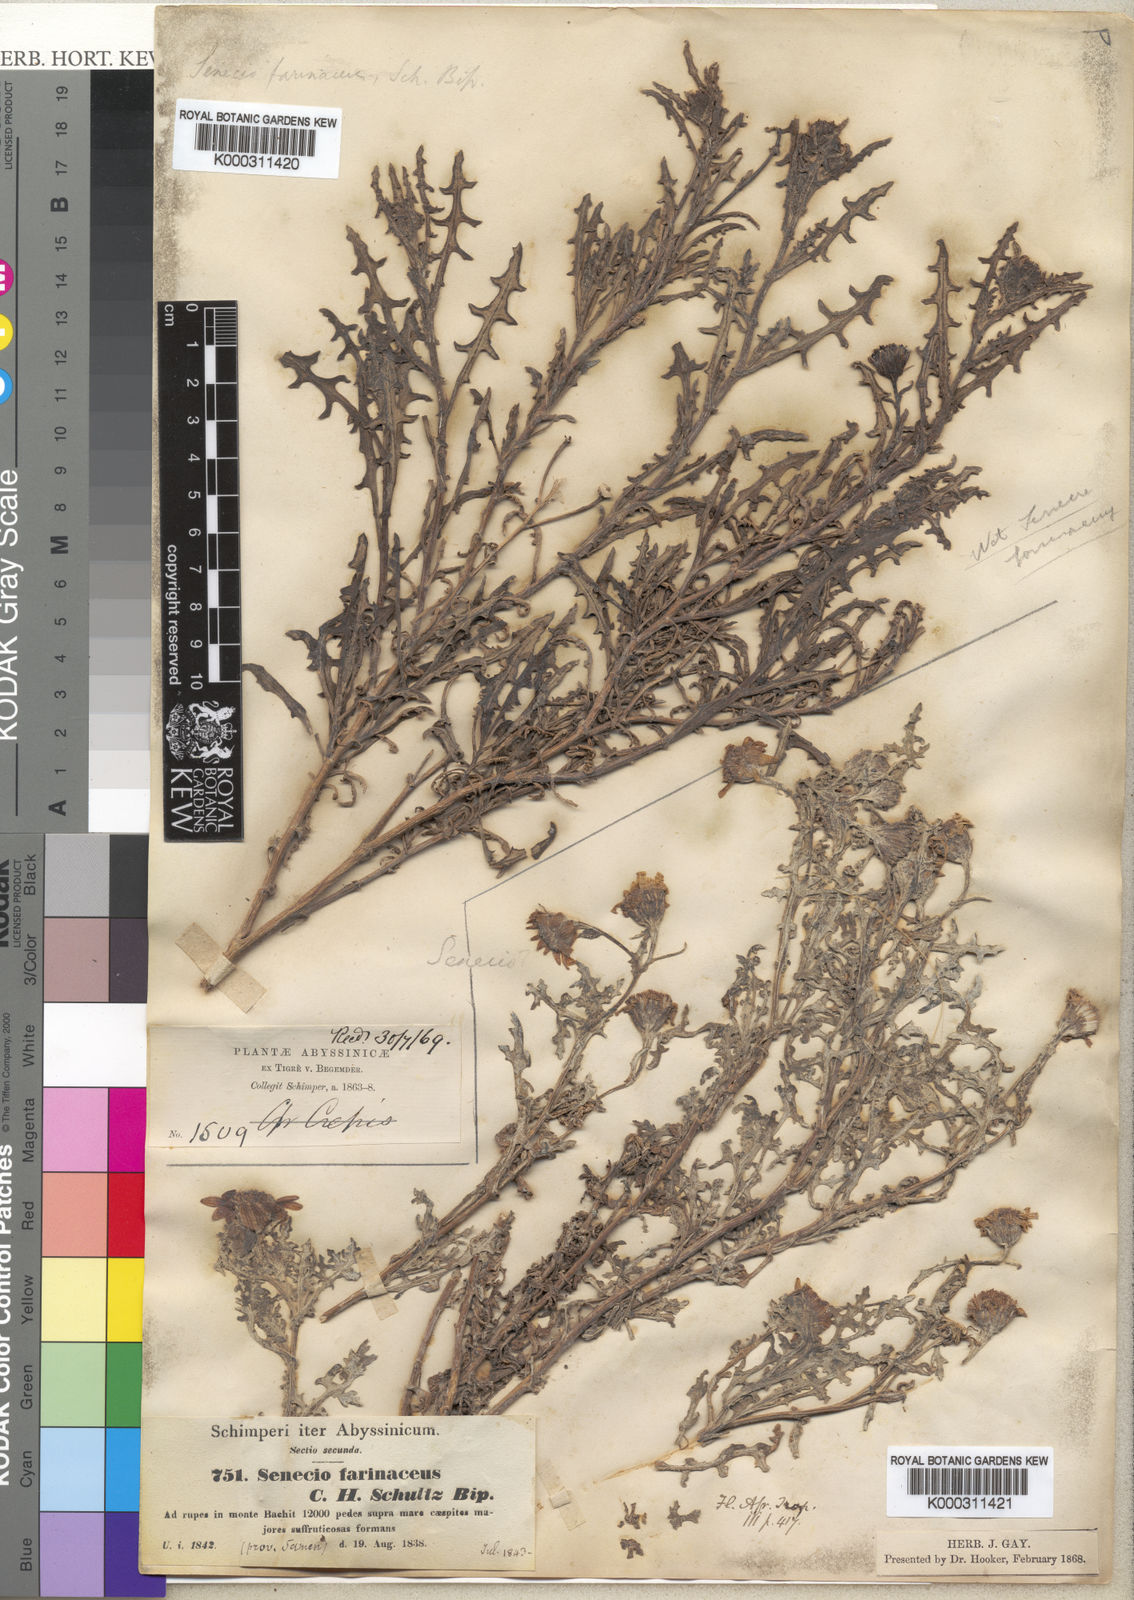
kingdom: Plantae
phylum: Tracheophyta
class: Magnoliopsida
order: Asterales
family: Asteraceae
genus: Senecio
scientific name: Senecio farinaceus
